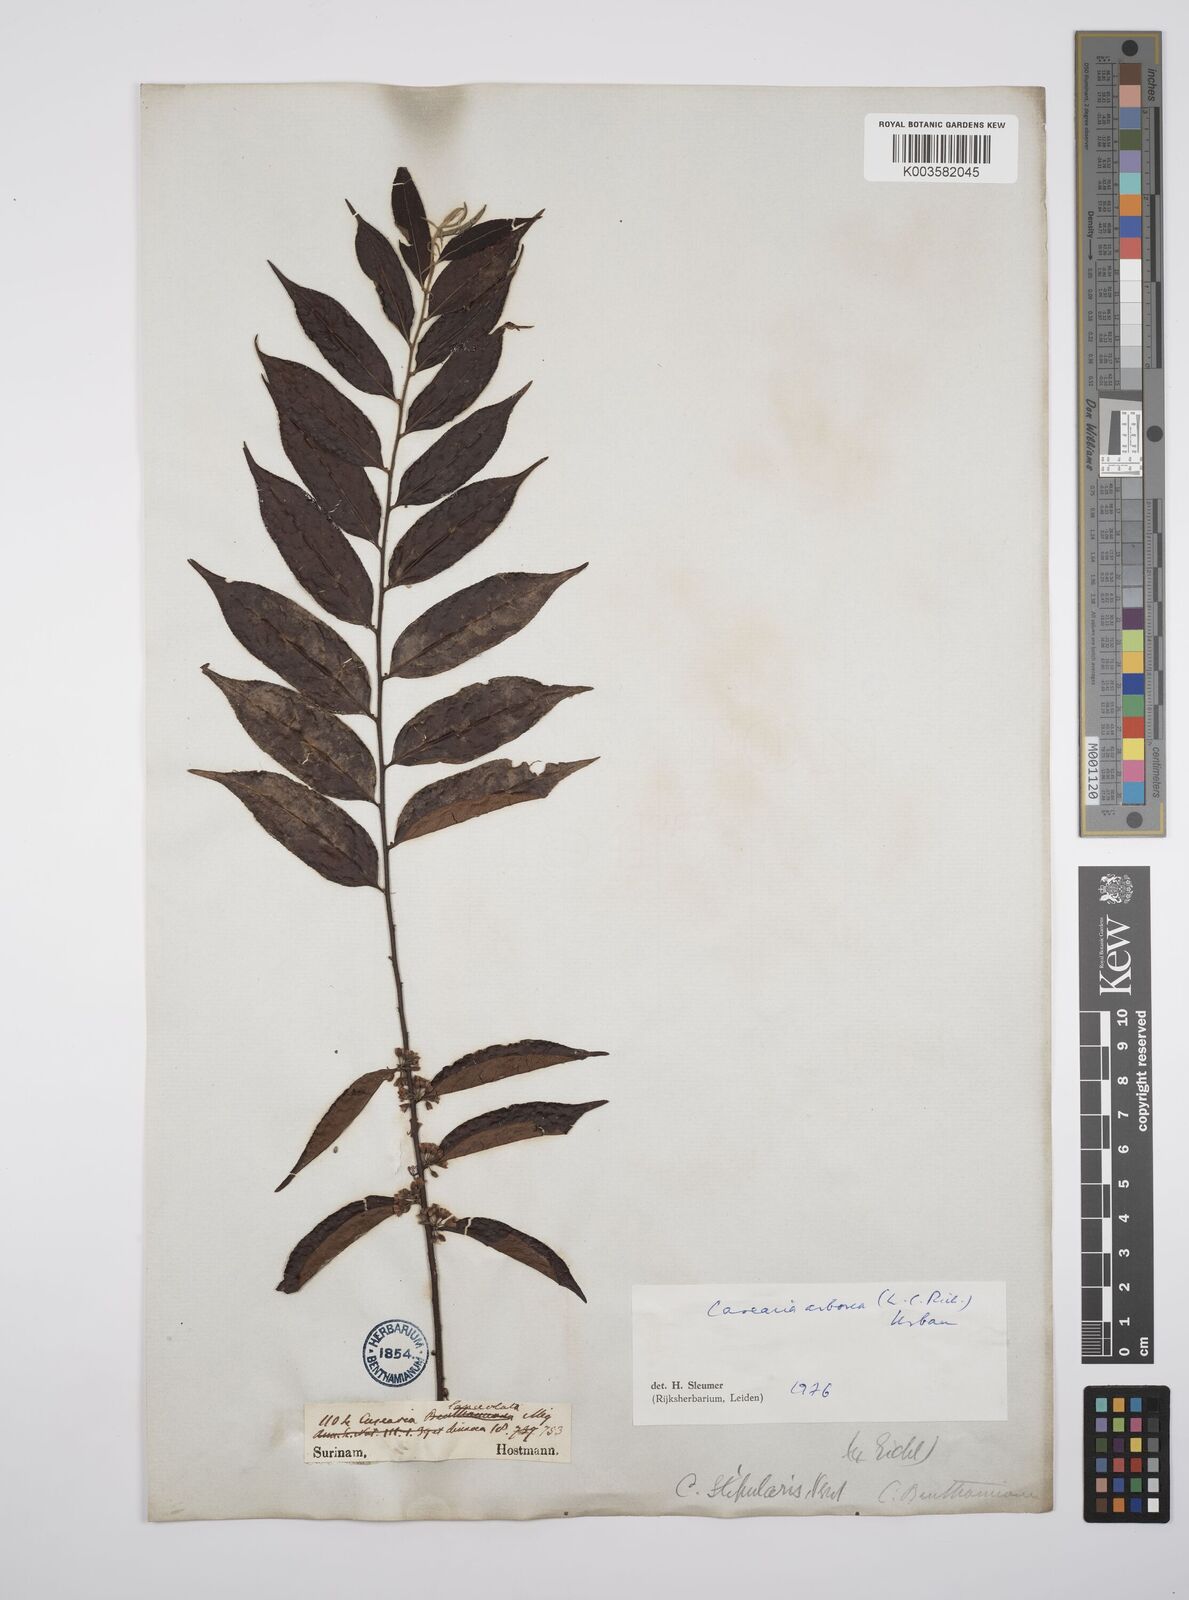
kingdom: Plantae
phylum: Tracheophyta
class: Magnoliopsida
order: Malpighiales
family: Salicaceae
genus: Casearia
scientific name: Casearia arborea
